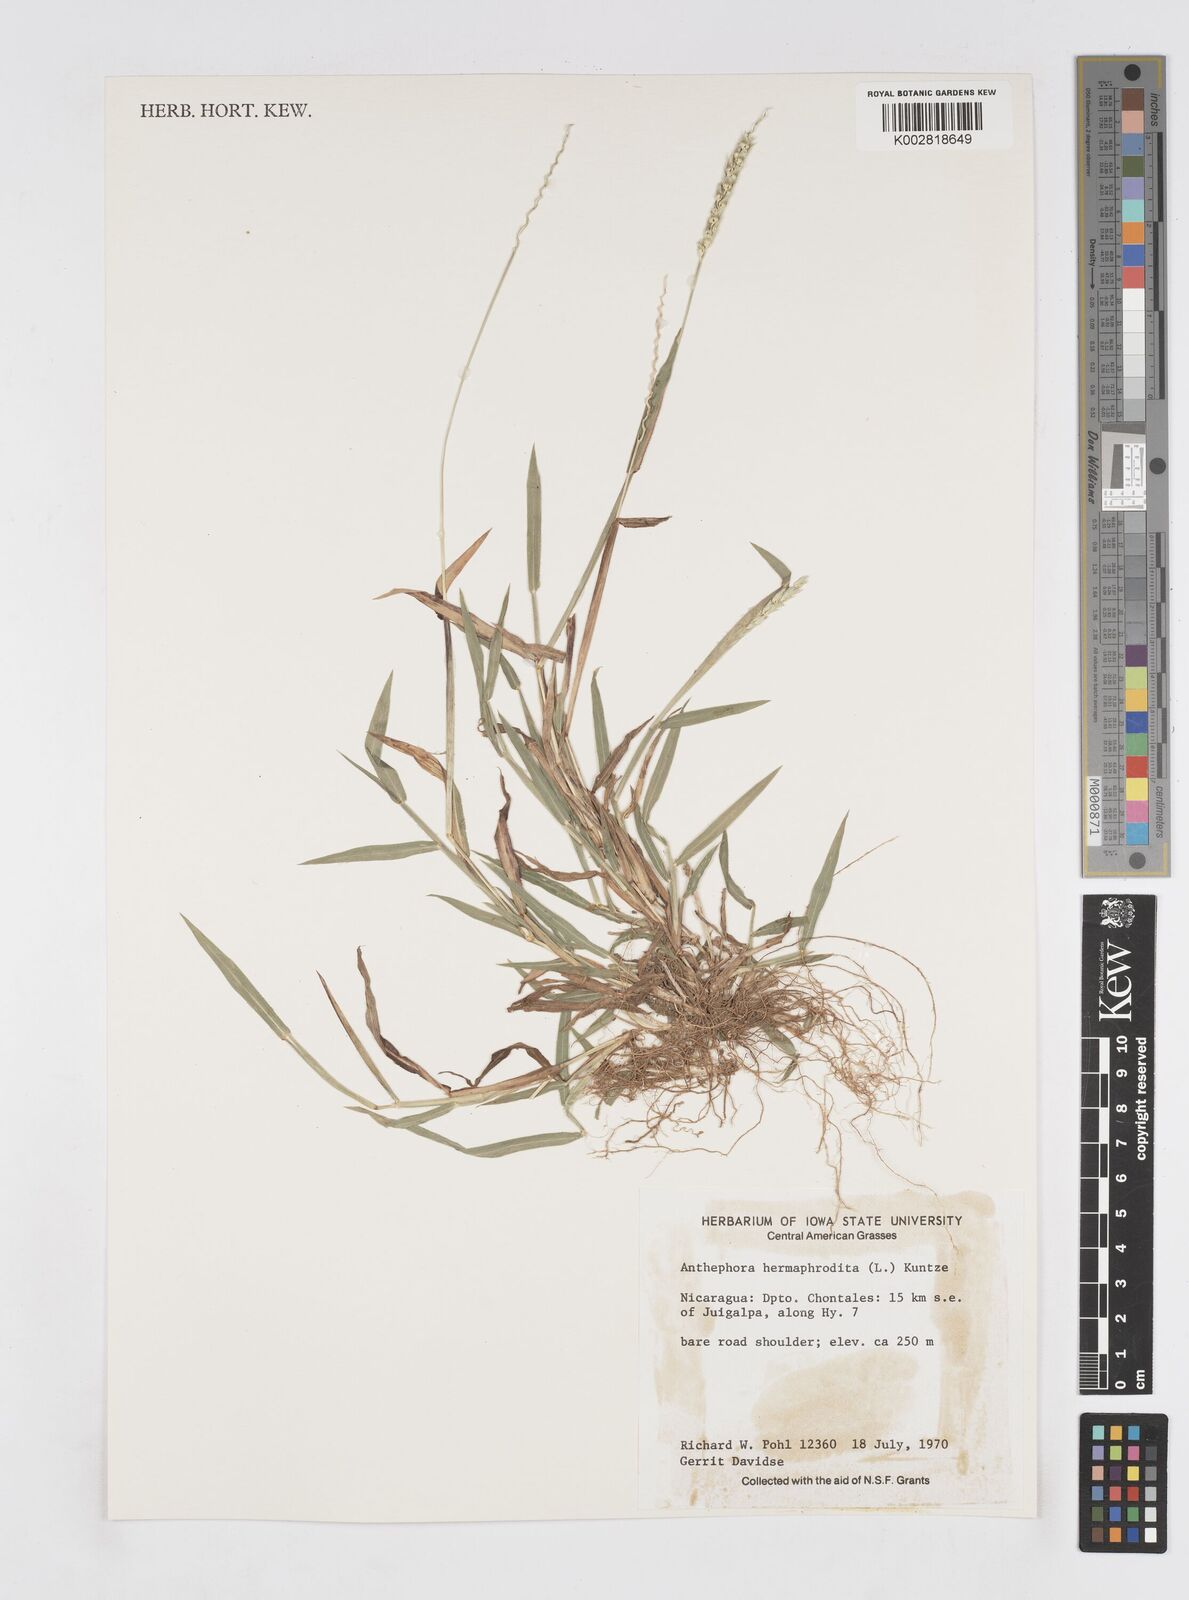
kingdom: Plantae
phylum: Tracheophyta
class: Liliopsida
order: Poales
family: Poaceae
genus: Anthephora
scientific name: Anthephora hermaphrodita
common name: Oldfield grass
